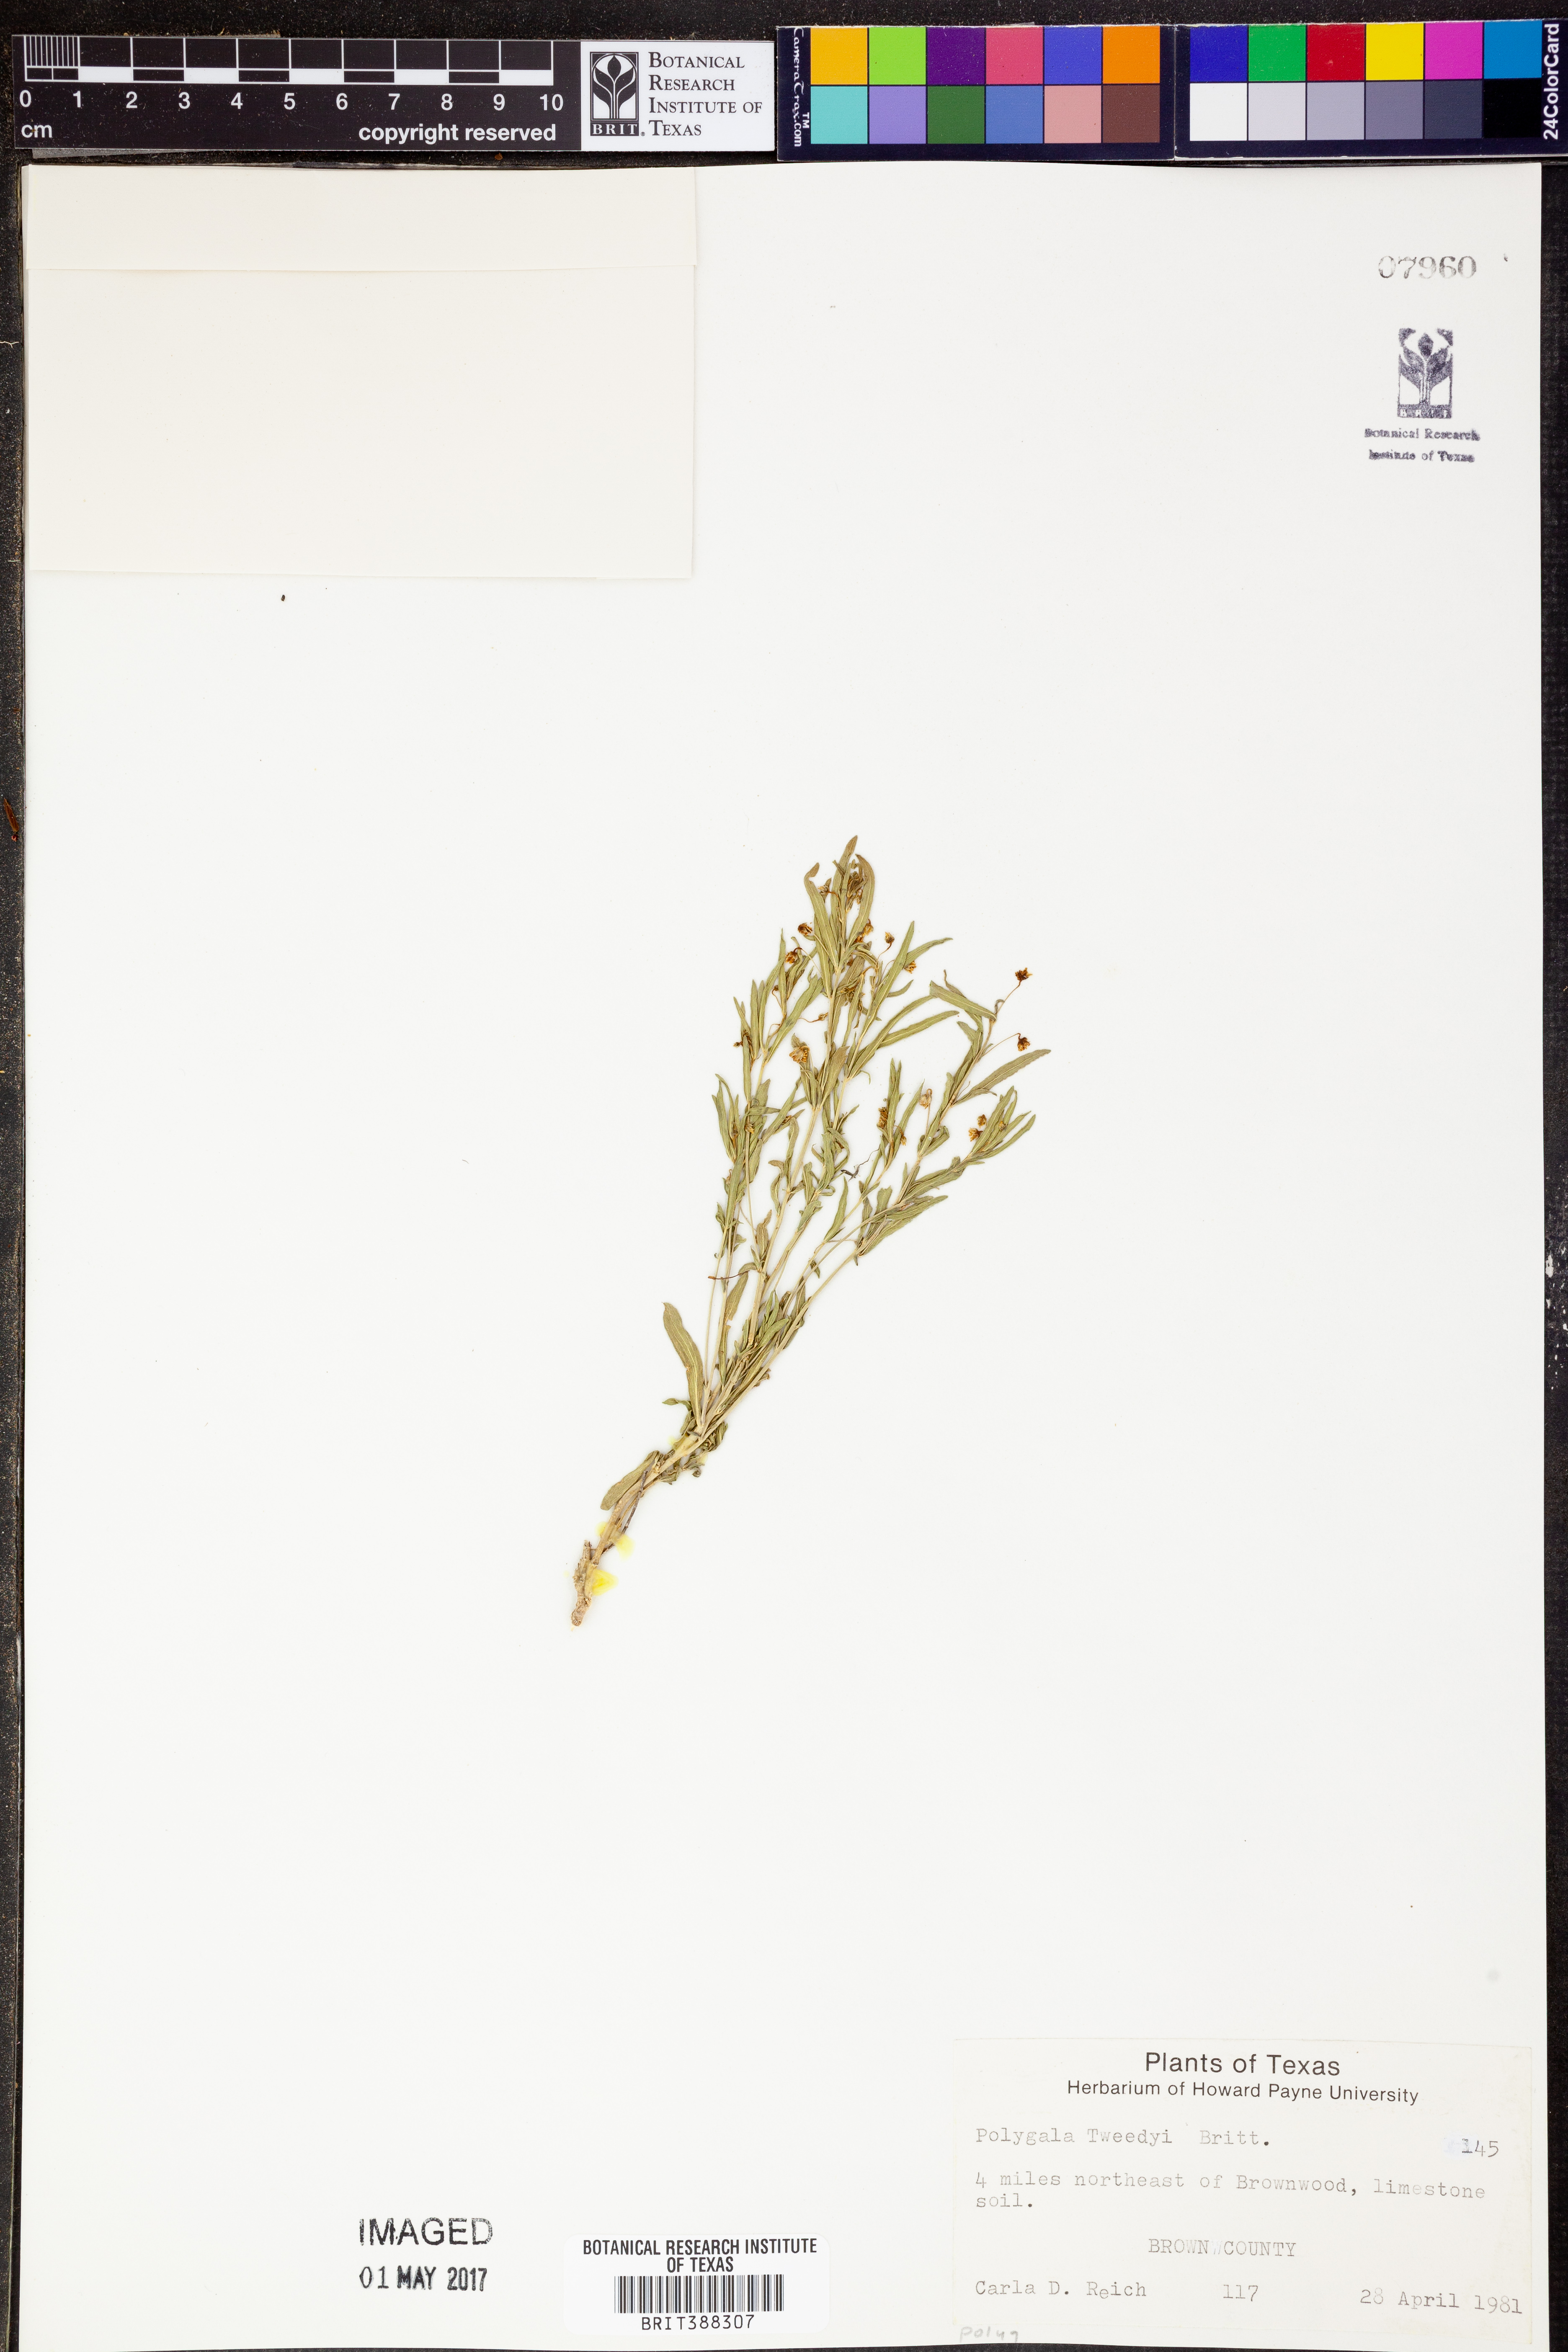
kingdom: Plantae
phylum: Tracheophyta
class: Magnoliopsida
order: Fabales
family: Polygalaceae
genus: Rhinotropis
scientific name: Rhinotropis lindheimeri
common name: Shrubby milkwort
